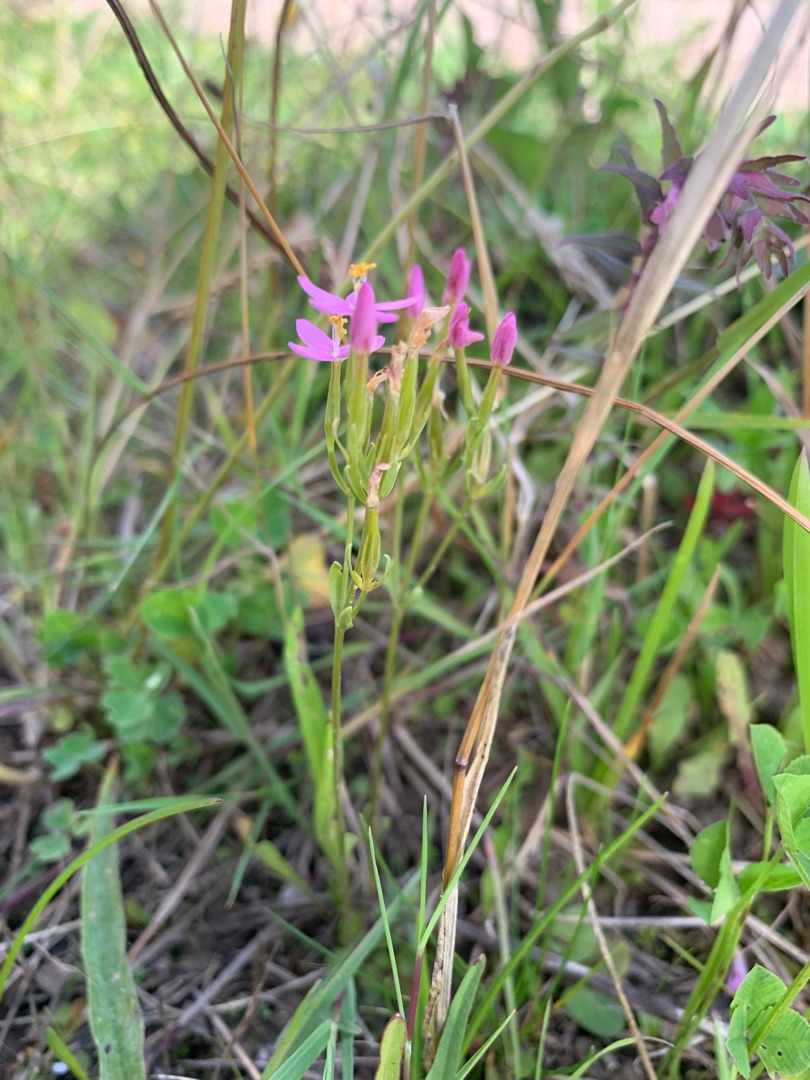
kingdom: Plantae
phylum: Tracheophyta
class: Magnoliopsida
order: Gentianales
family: Gentianaceae
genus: Centaurium
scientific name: Centaurium erythraea
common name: Mark-tusindgylden
